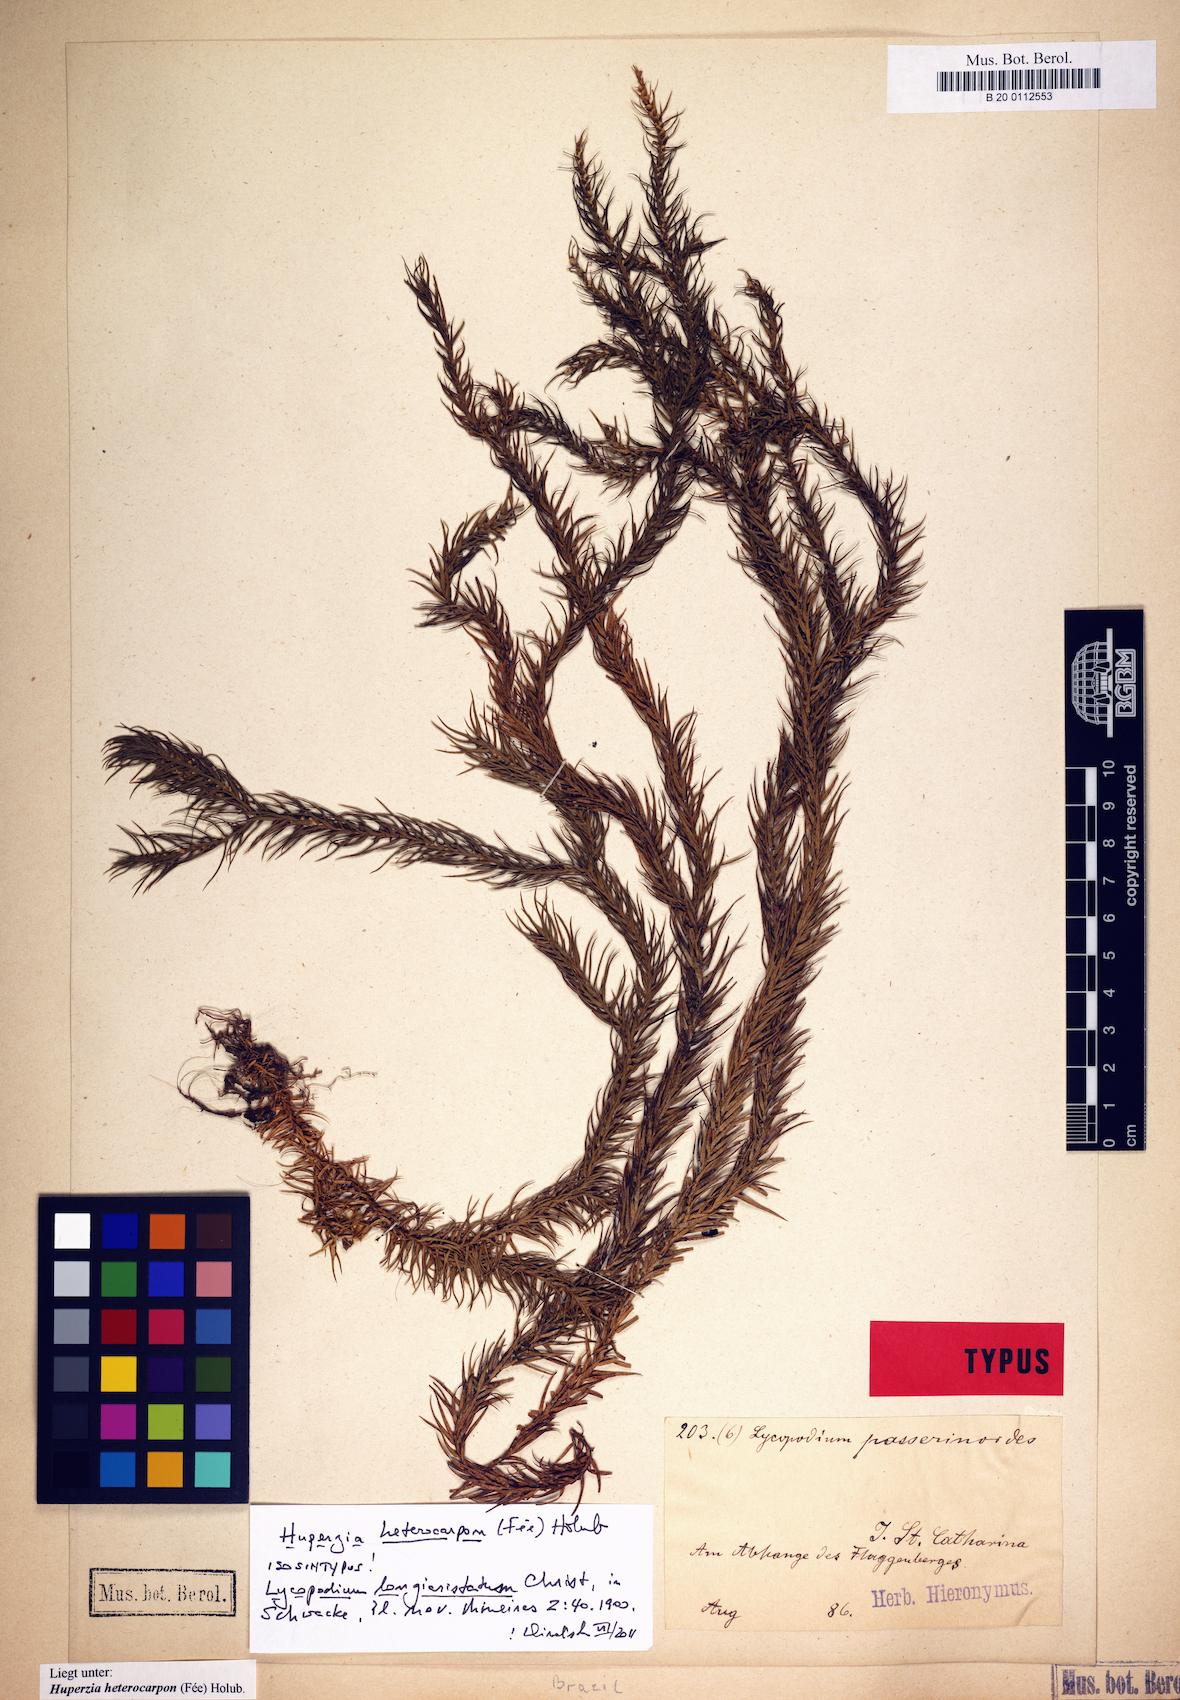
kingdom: Plantae
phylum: Tracheophyta
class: Lycopodiopsida
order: Lycopodiales
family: Lycopodiaceae
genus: Phlegmariurus
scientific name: Phlegmariurus heterocarpos
